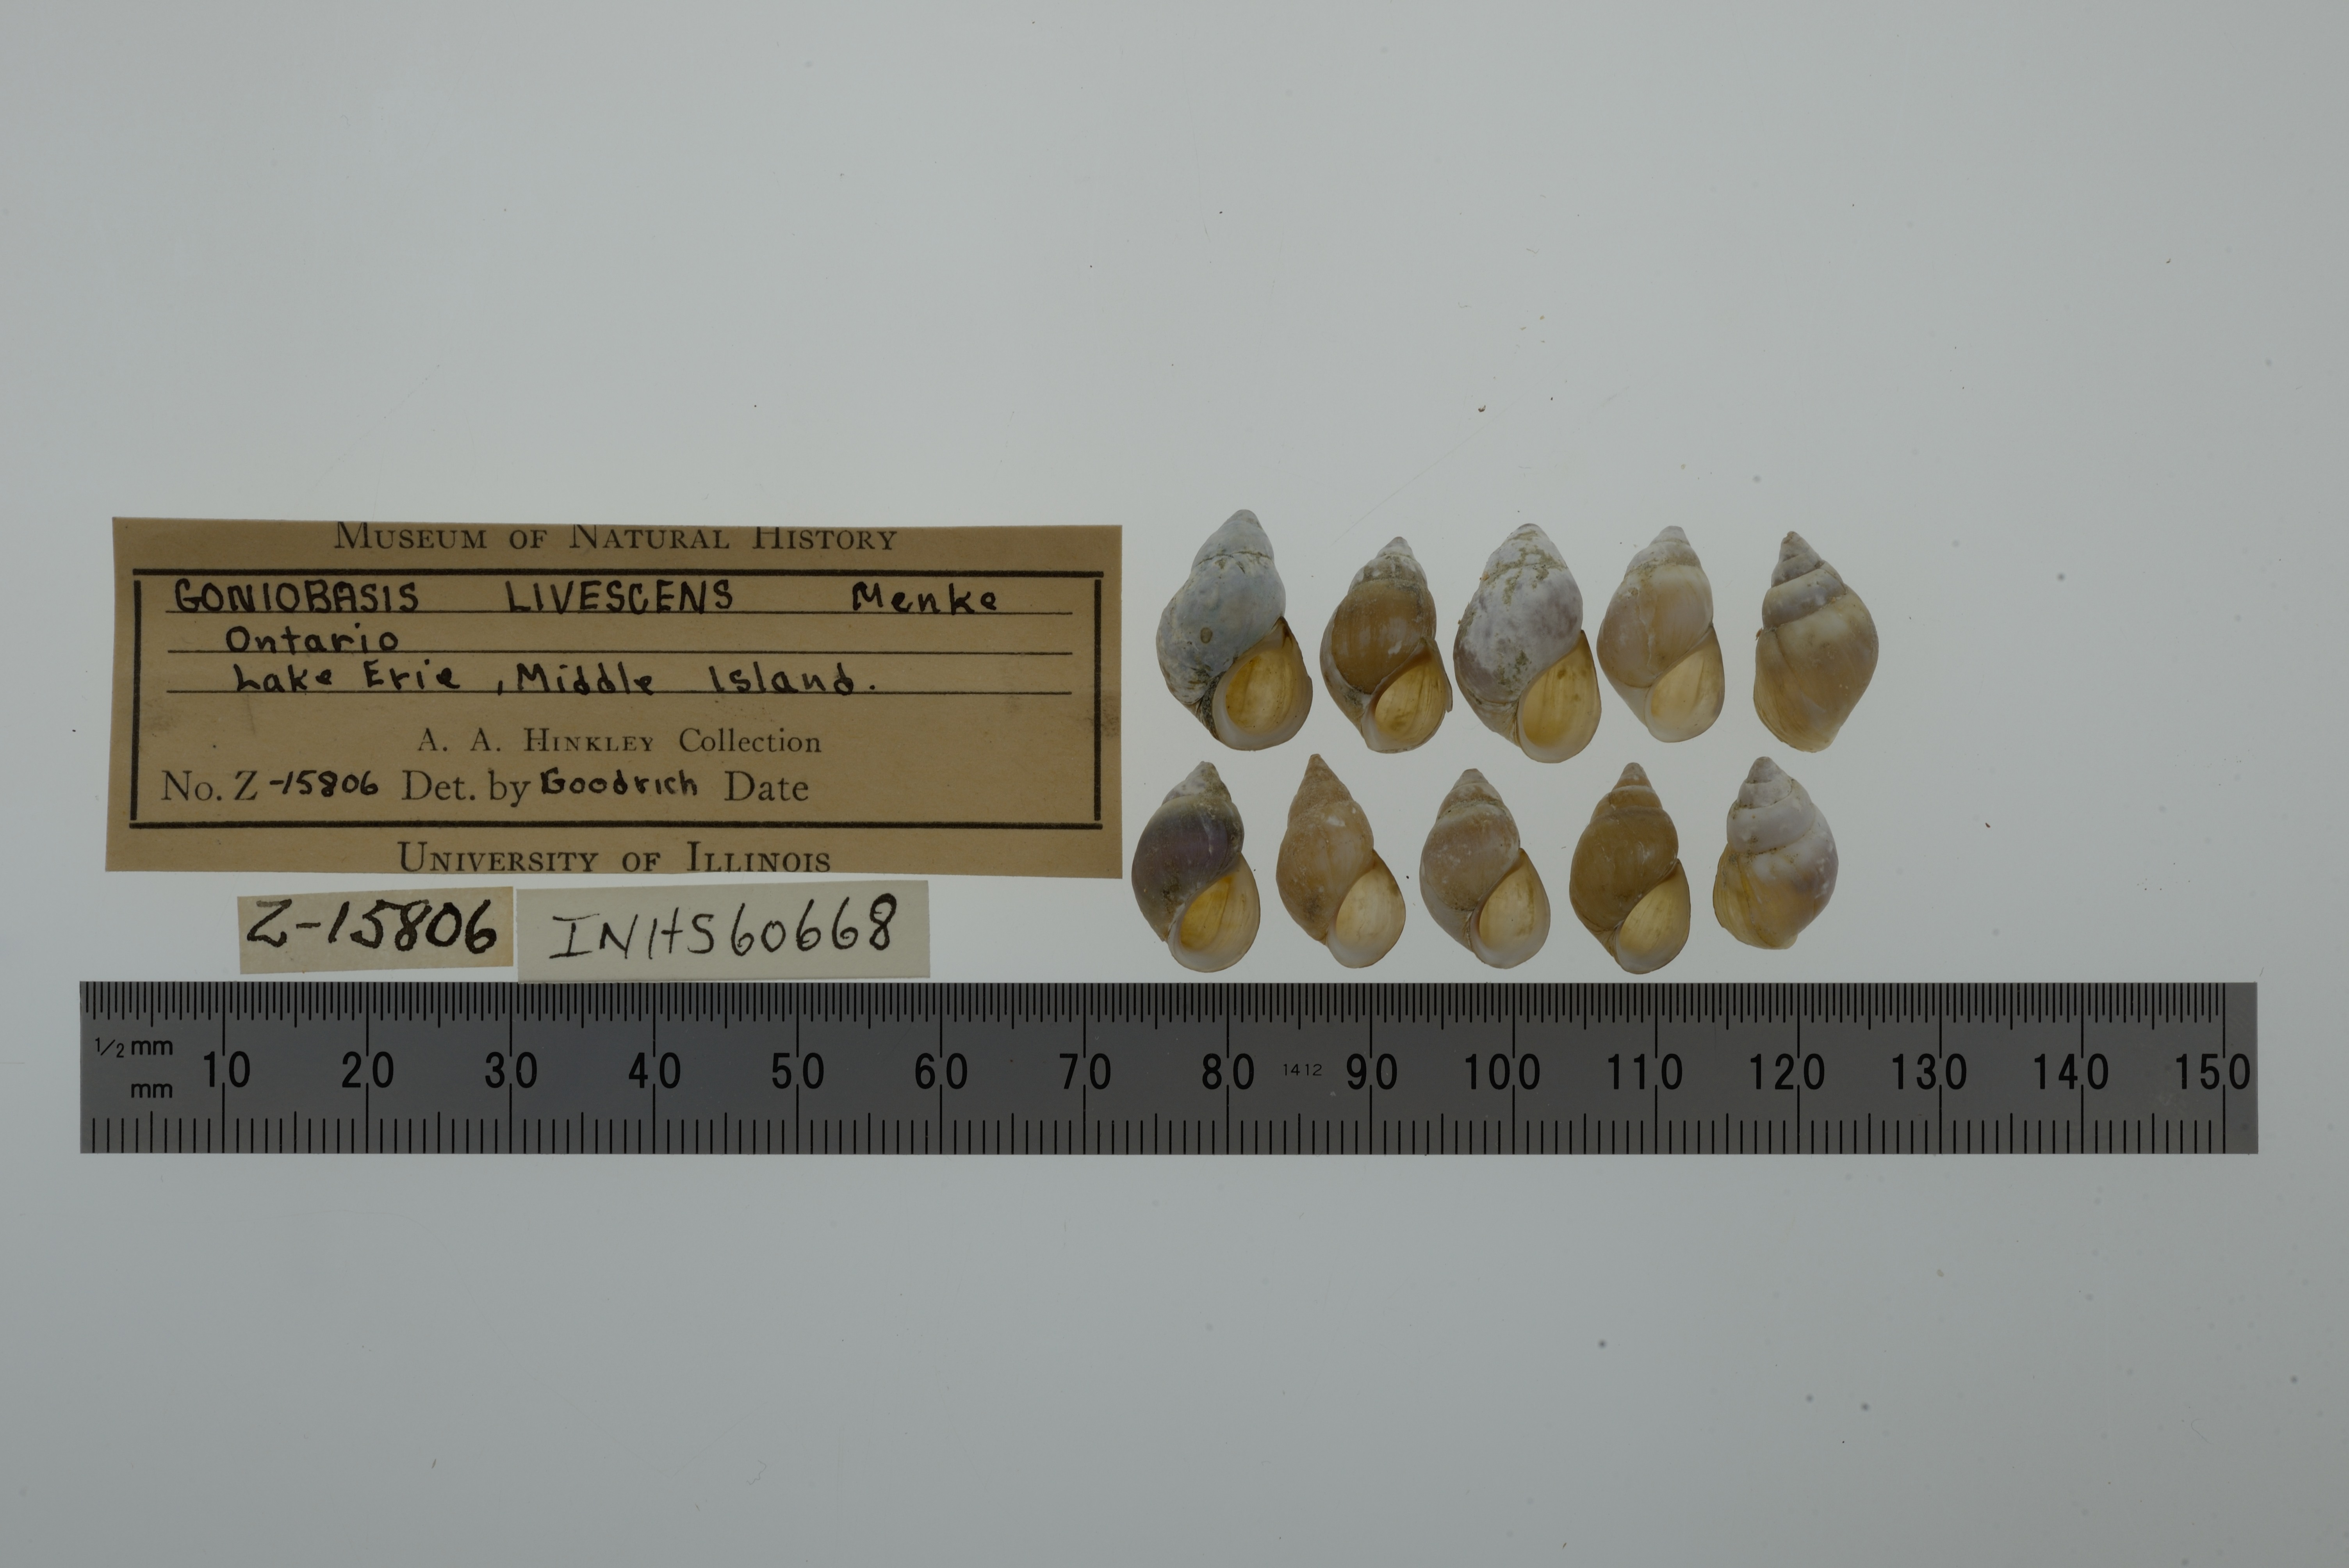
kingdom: Animalia
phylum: Mollusca
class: Gastropoda
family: Pleuroceridae
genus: Elimia
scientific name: Elimia livescens
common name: Liver elimia
